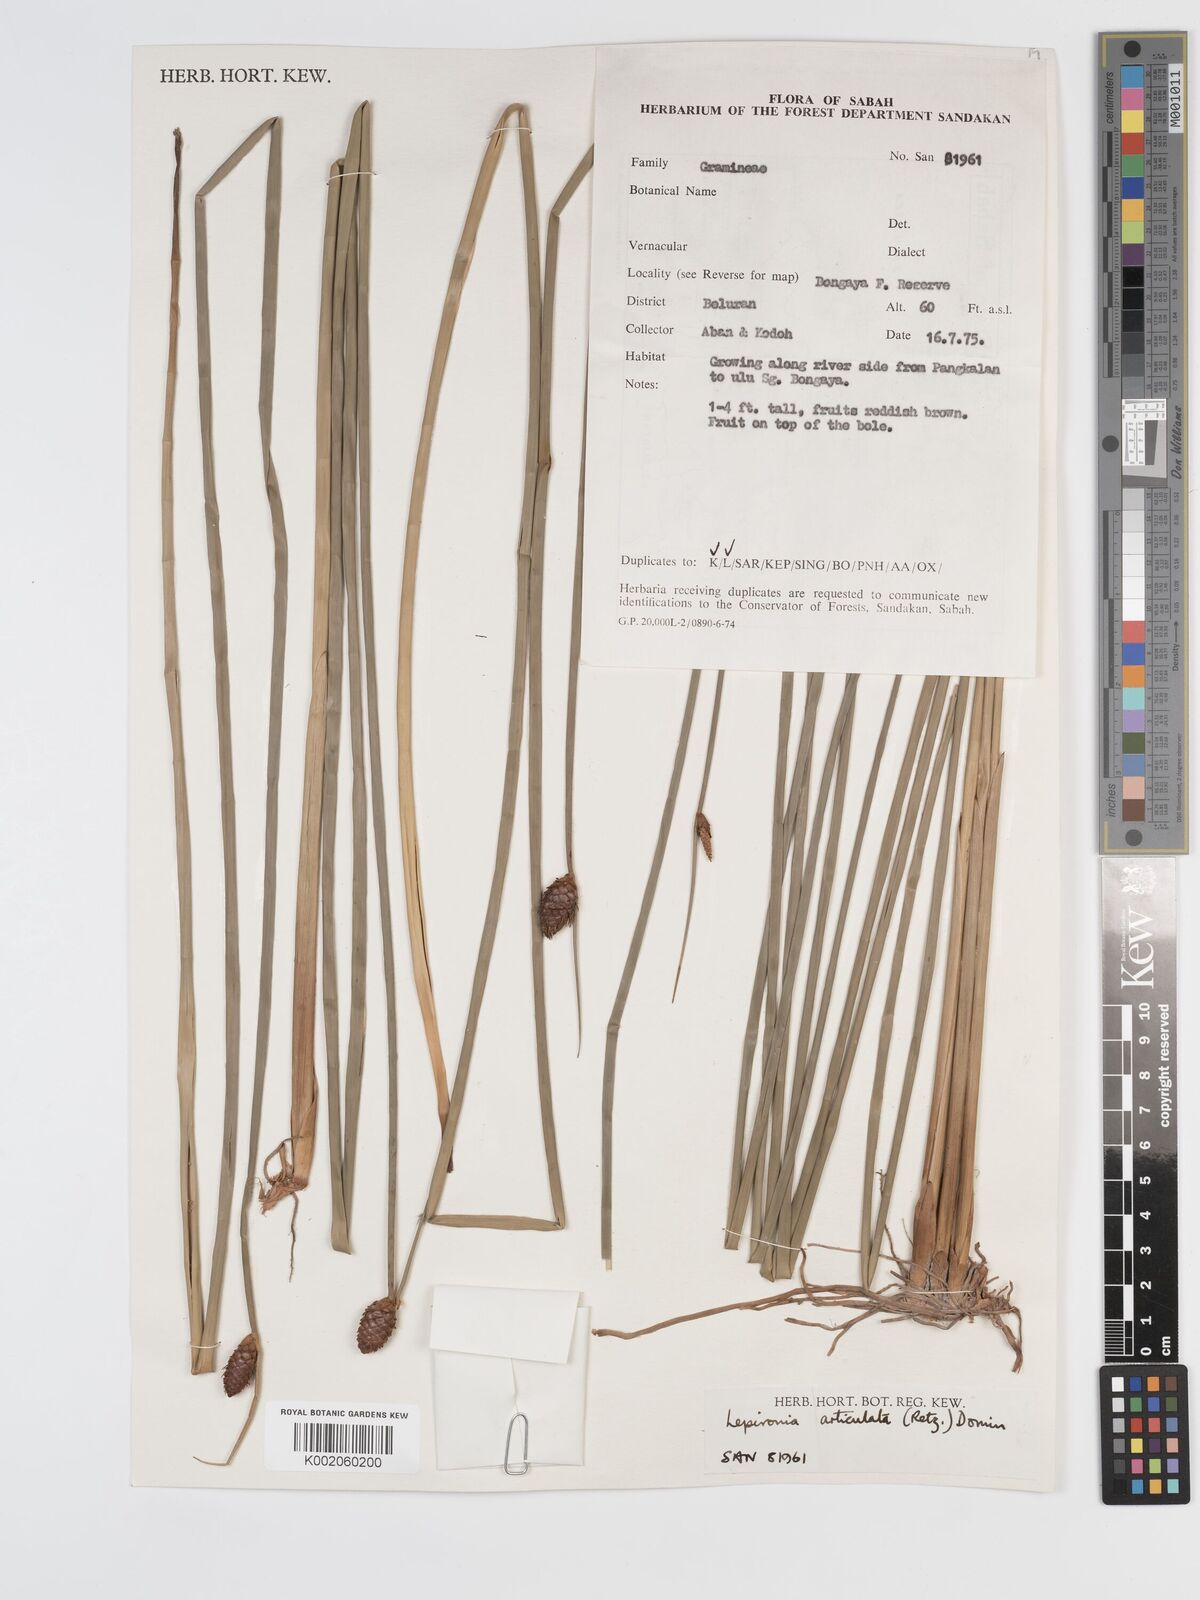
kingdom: Plantae
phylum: Tracheophyta
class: Liliopsida
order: Poales
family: Cyperaceae
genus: Lepironia
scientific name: Lepironia articulata
